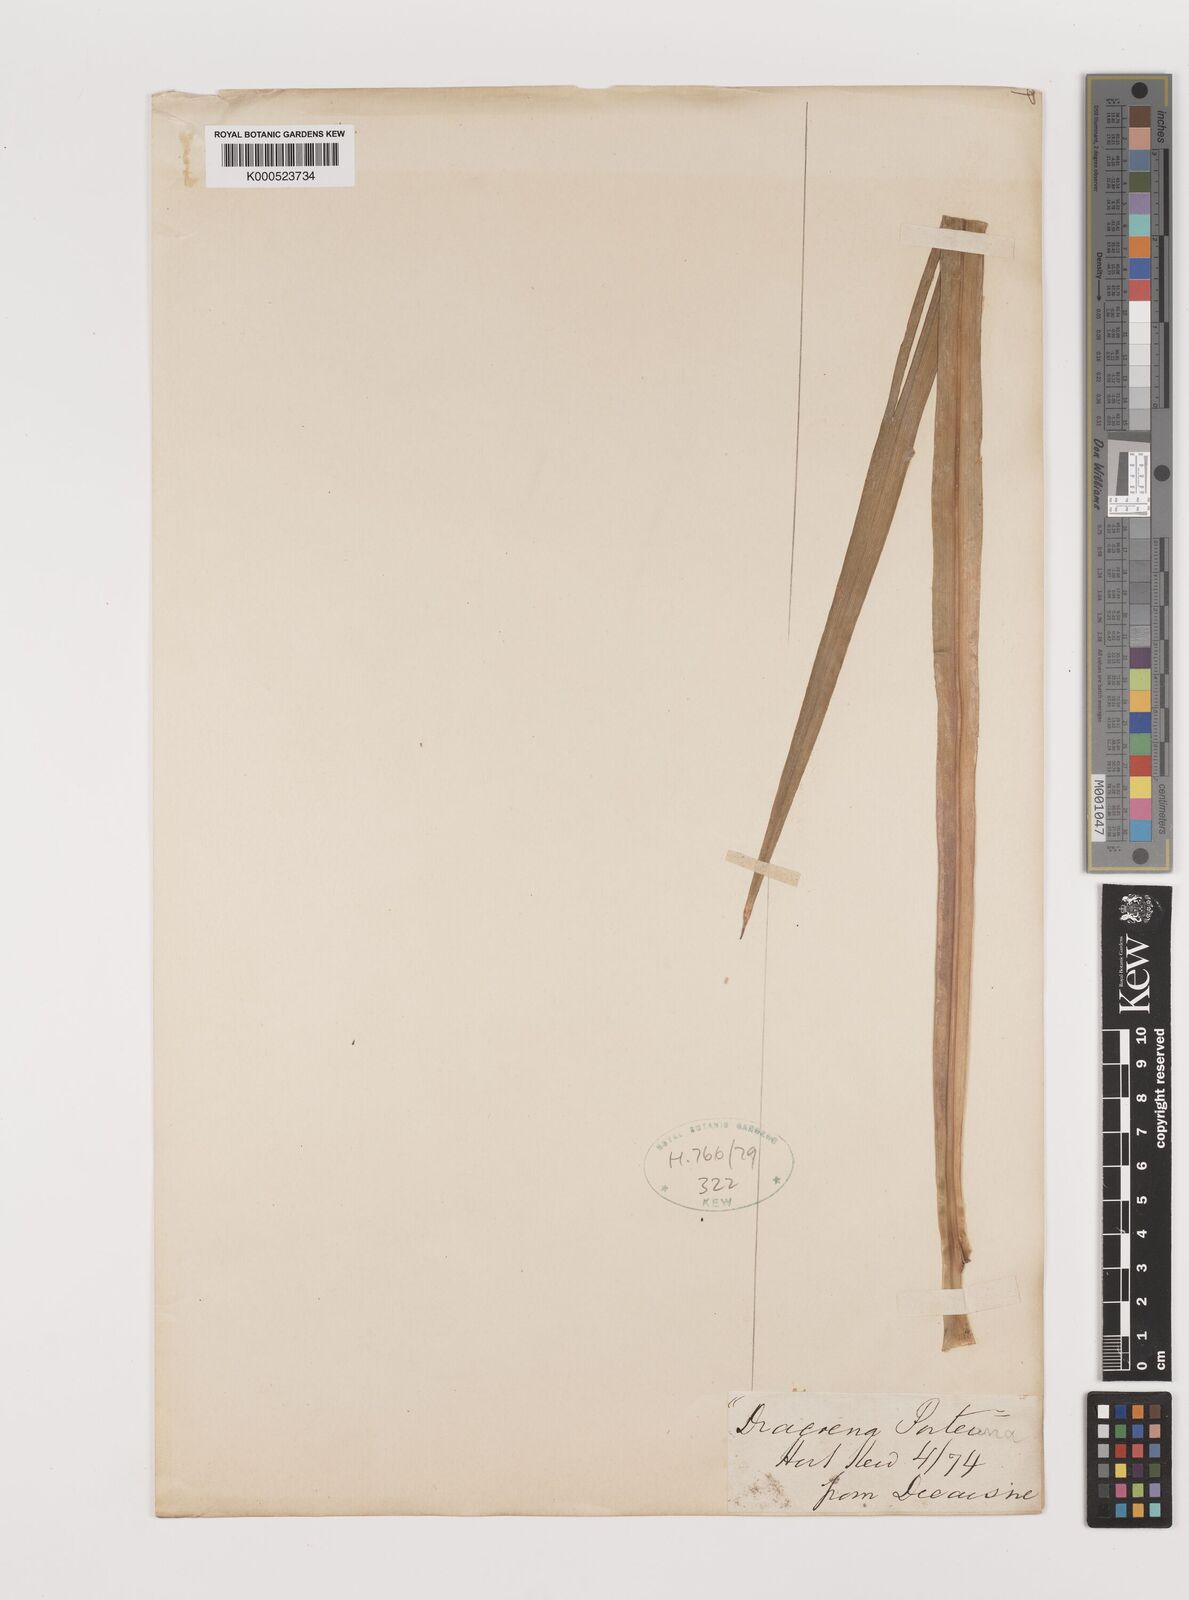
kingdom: Plantae
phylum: Tracheophyta
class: Liliopsida
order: Asparagales
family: Asparagaceae
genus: Cordyline
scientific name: Cordyline fruticosa
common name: Good-luck-plant
